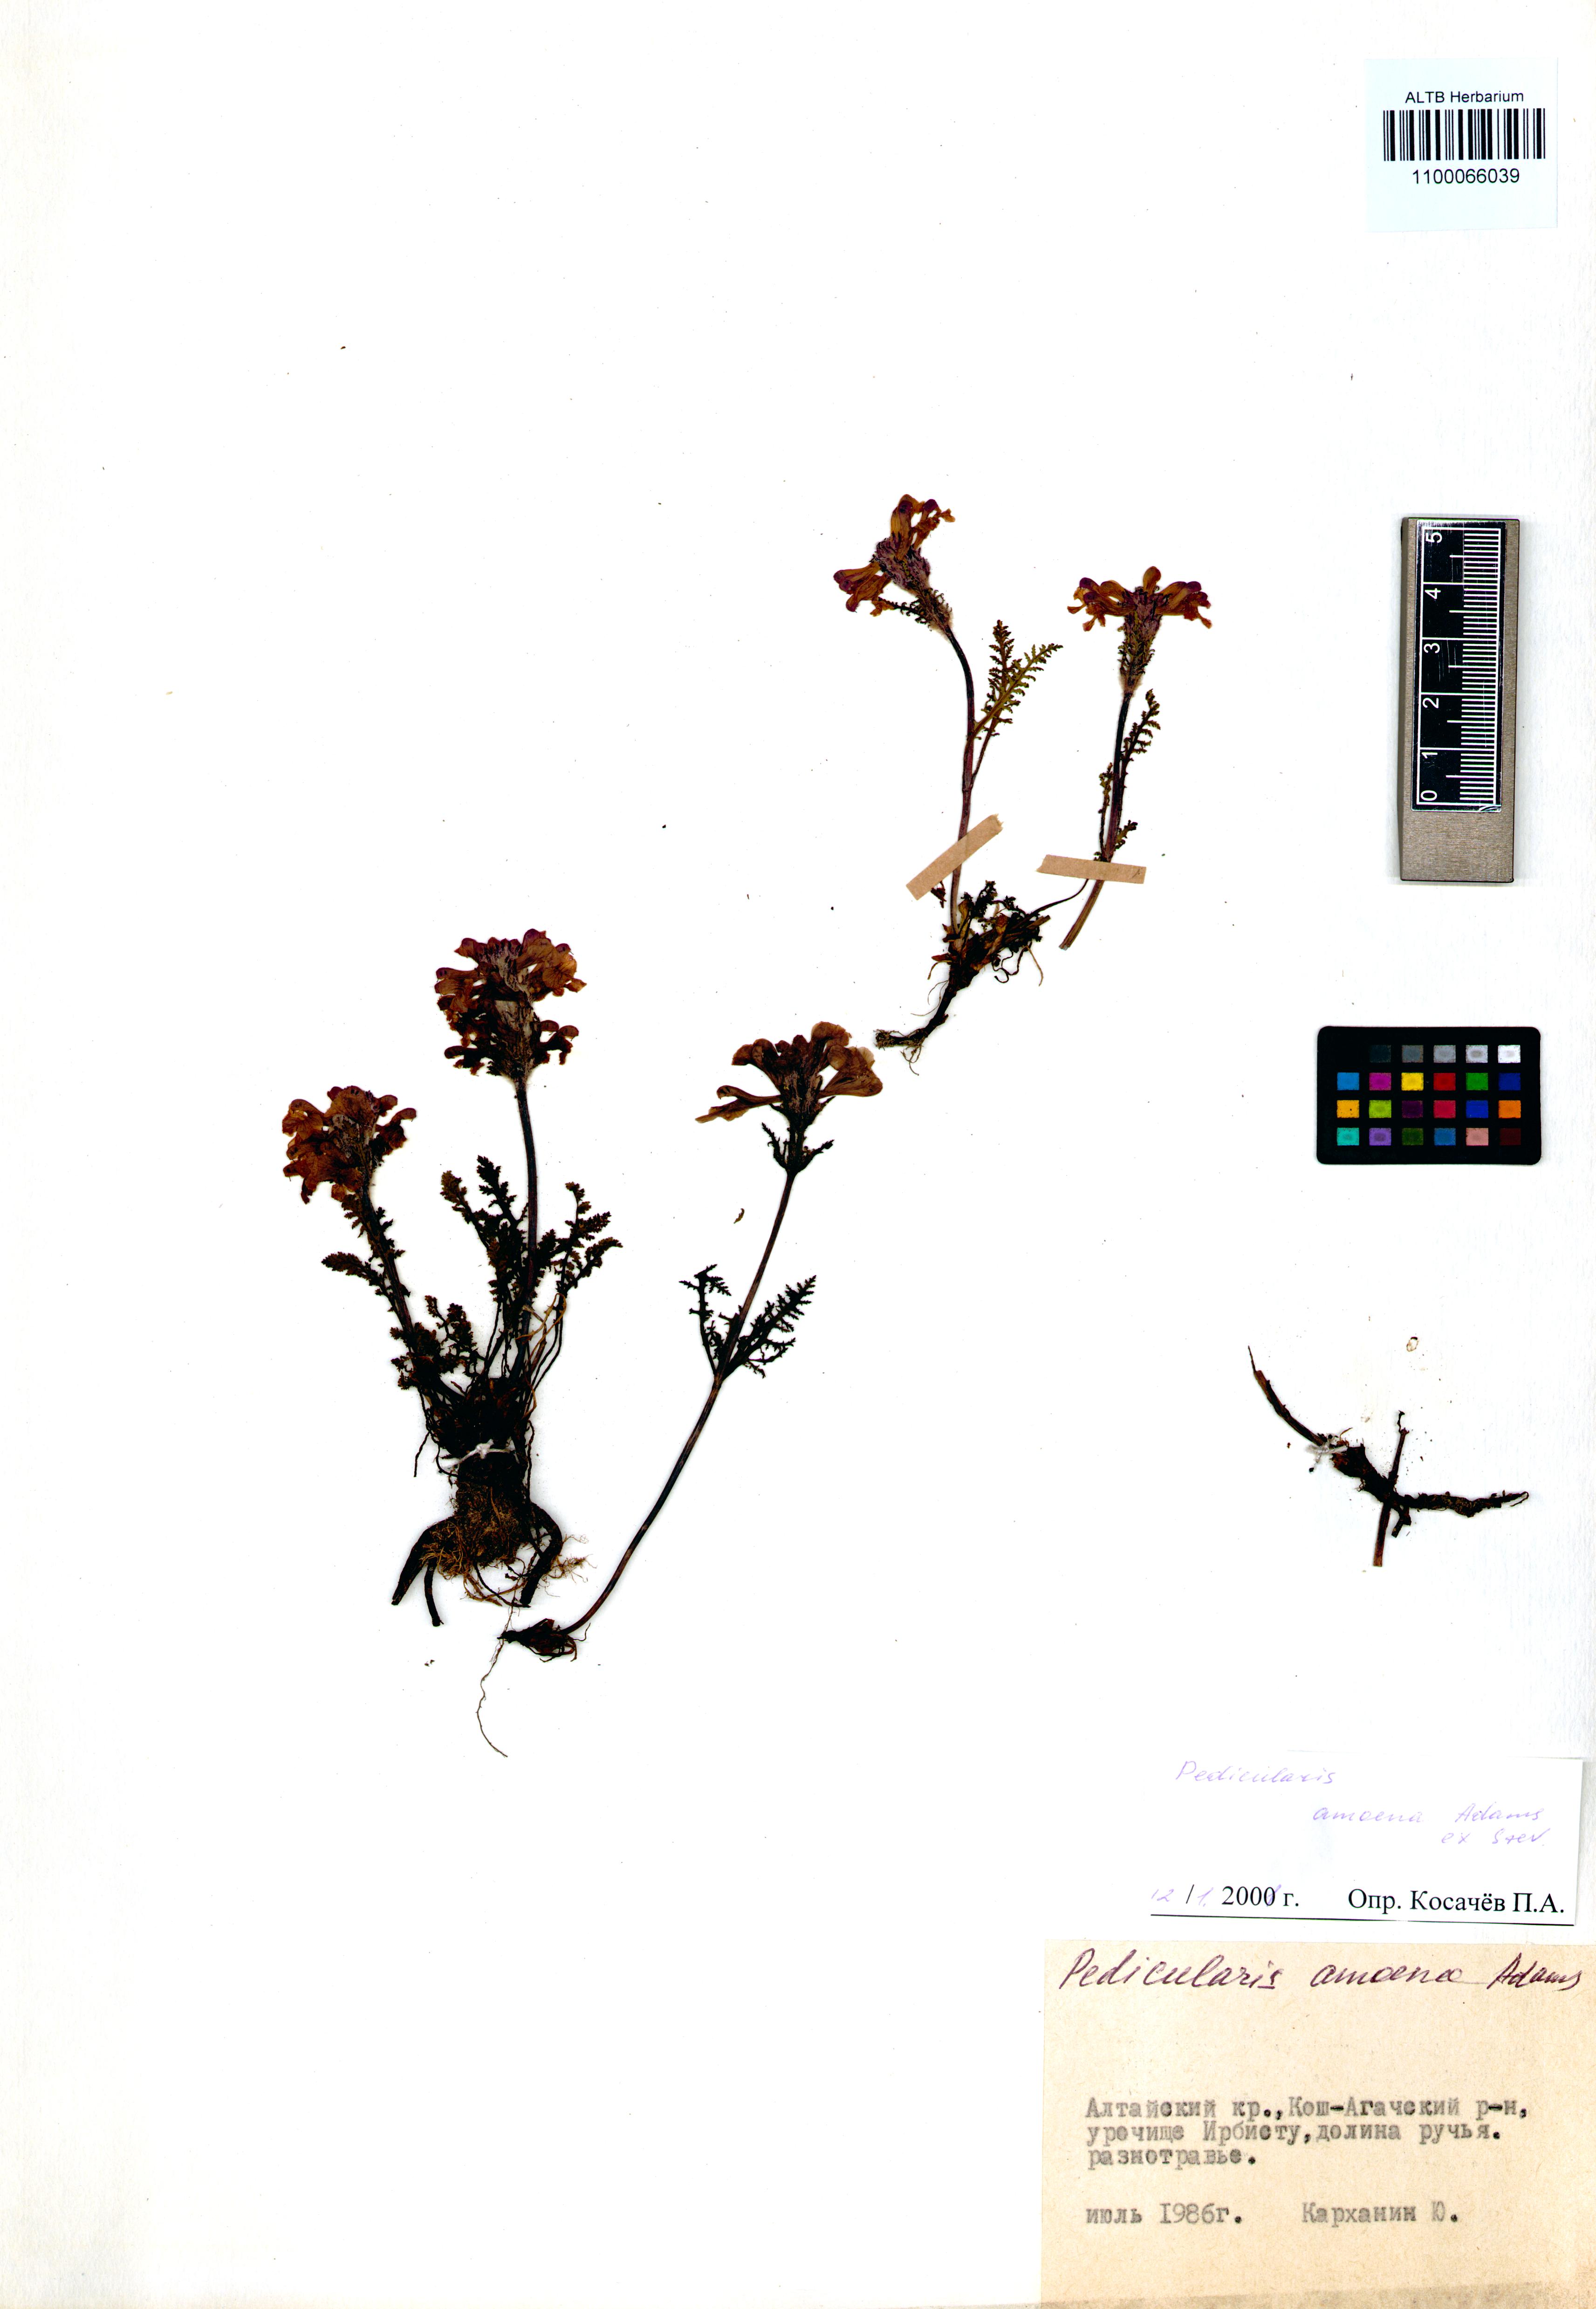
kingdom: Plantae
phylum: Tracheophyta
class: Magnoliopsida
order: Lamiales
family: Orobanchaceae
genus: Pedicularis
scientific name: Pedicularis amoena
